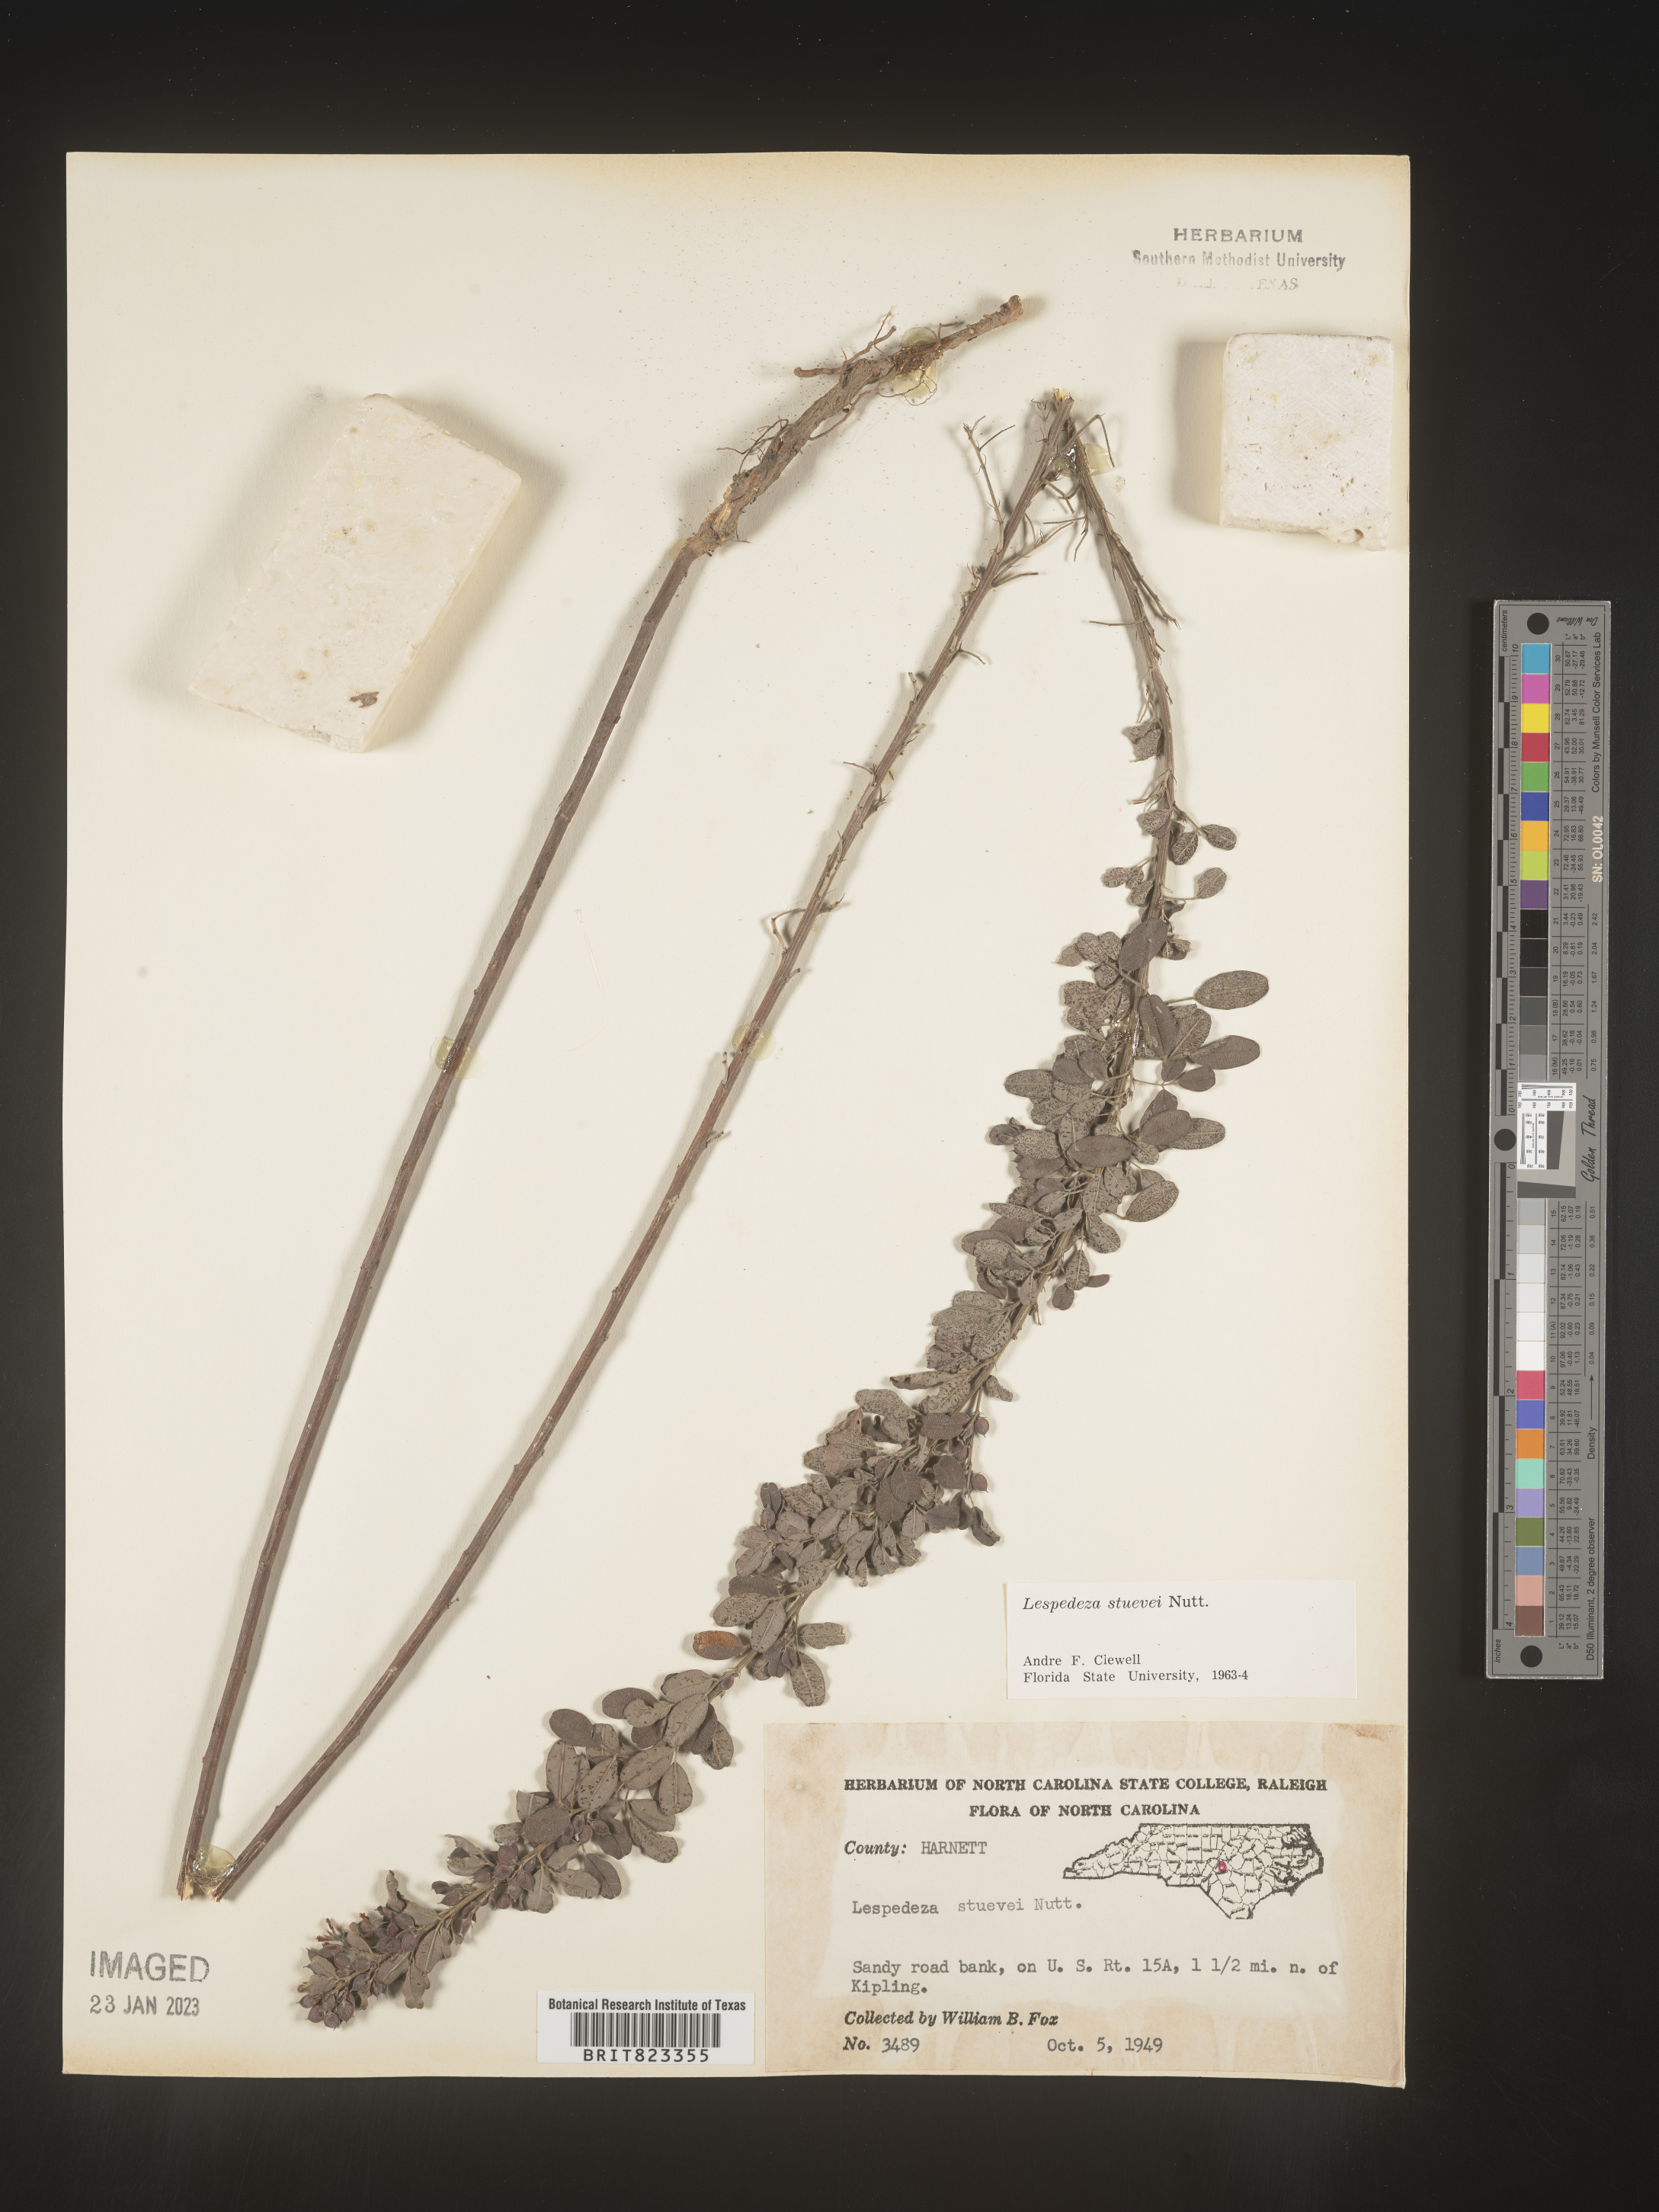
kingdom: Plantae
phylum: Tracheophyta
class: Magnoliopsida
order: Fabales
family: Fabaceae
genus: Lespedeza
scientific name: Lespedeza stuevei
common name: Tall bush-clover
